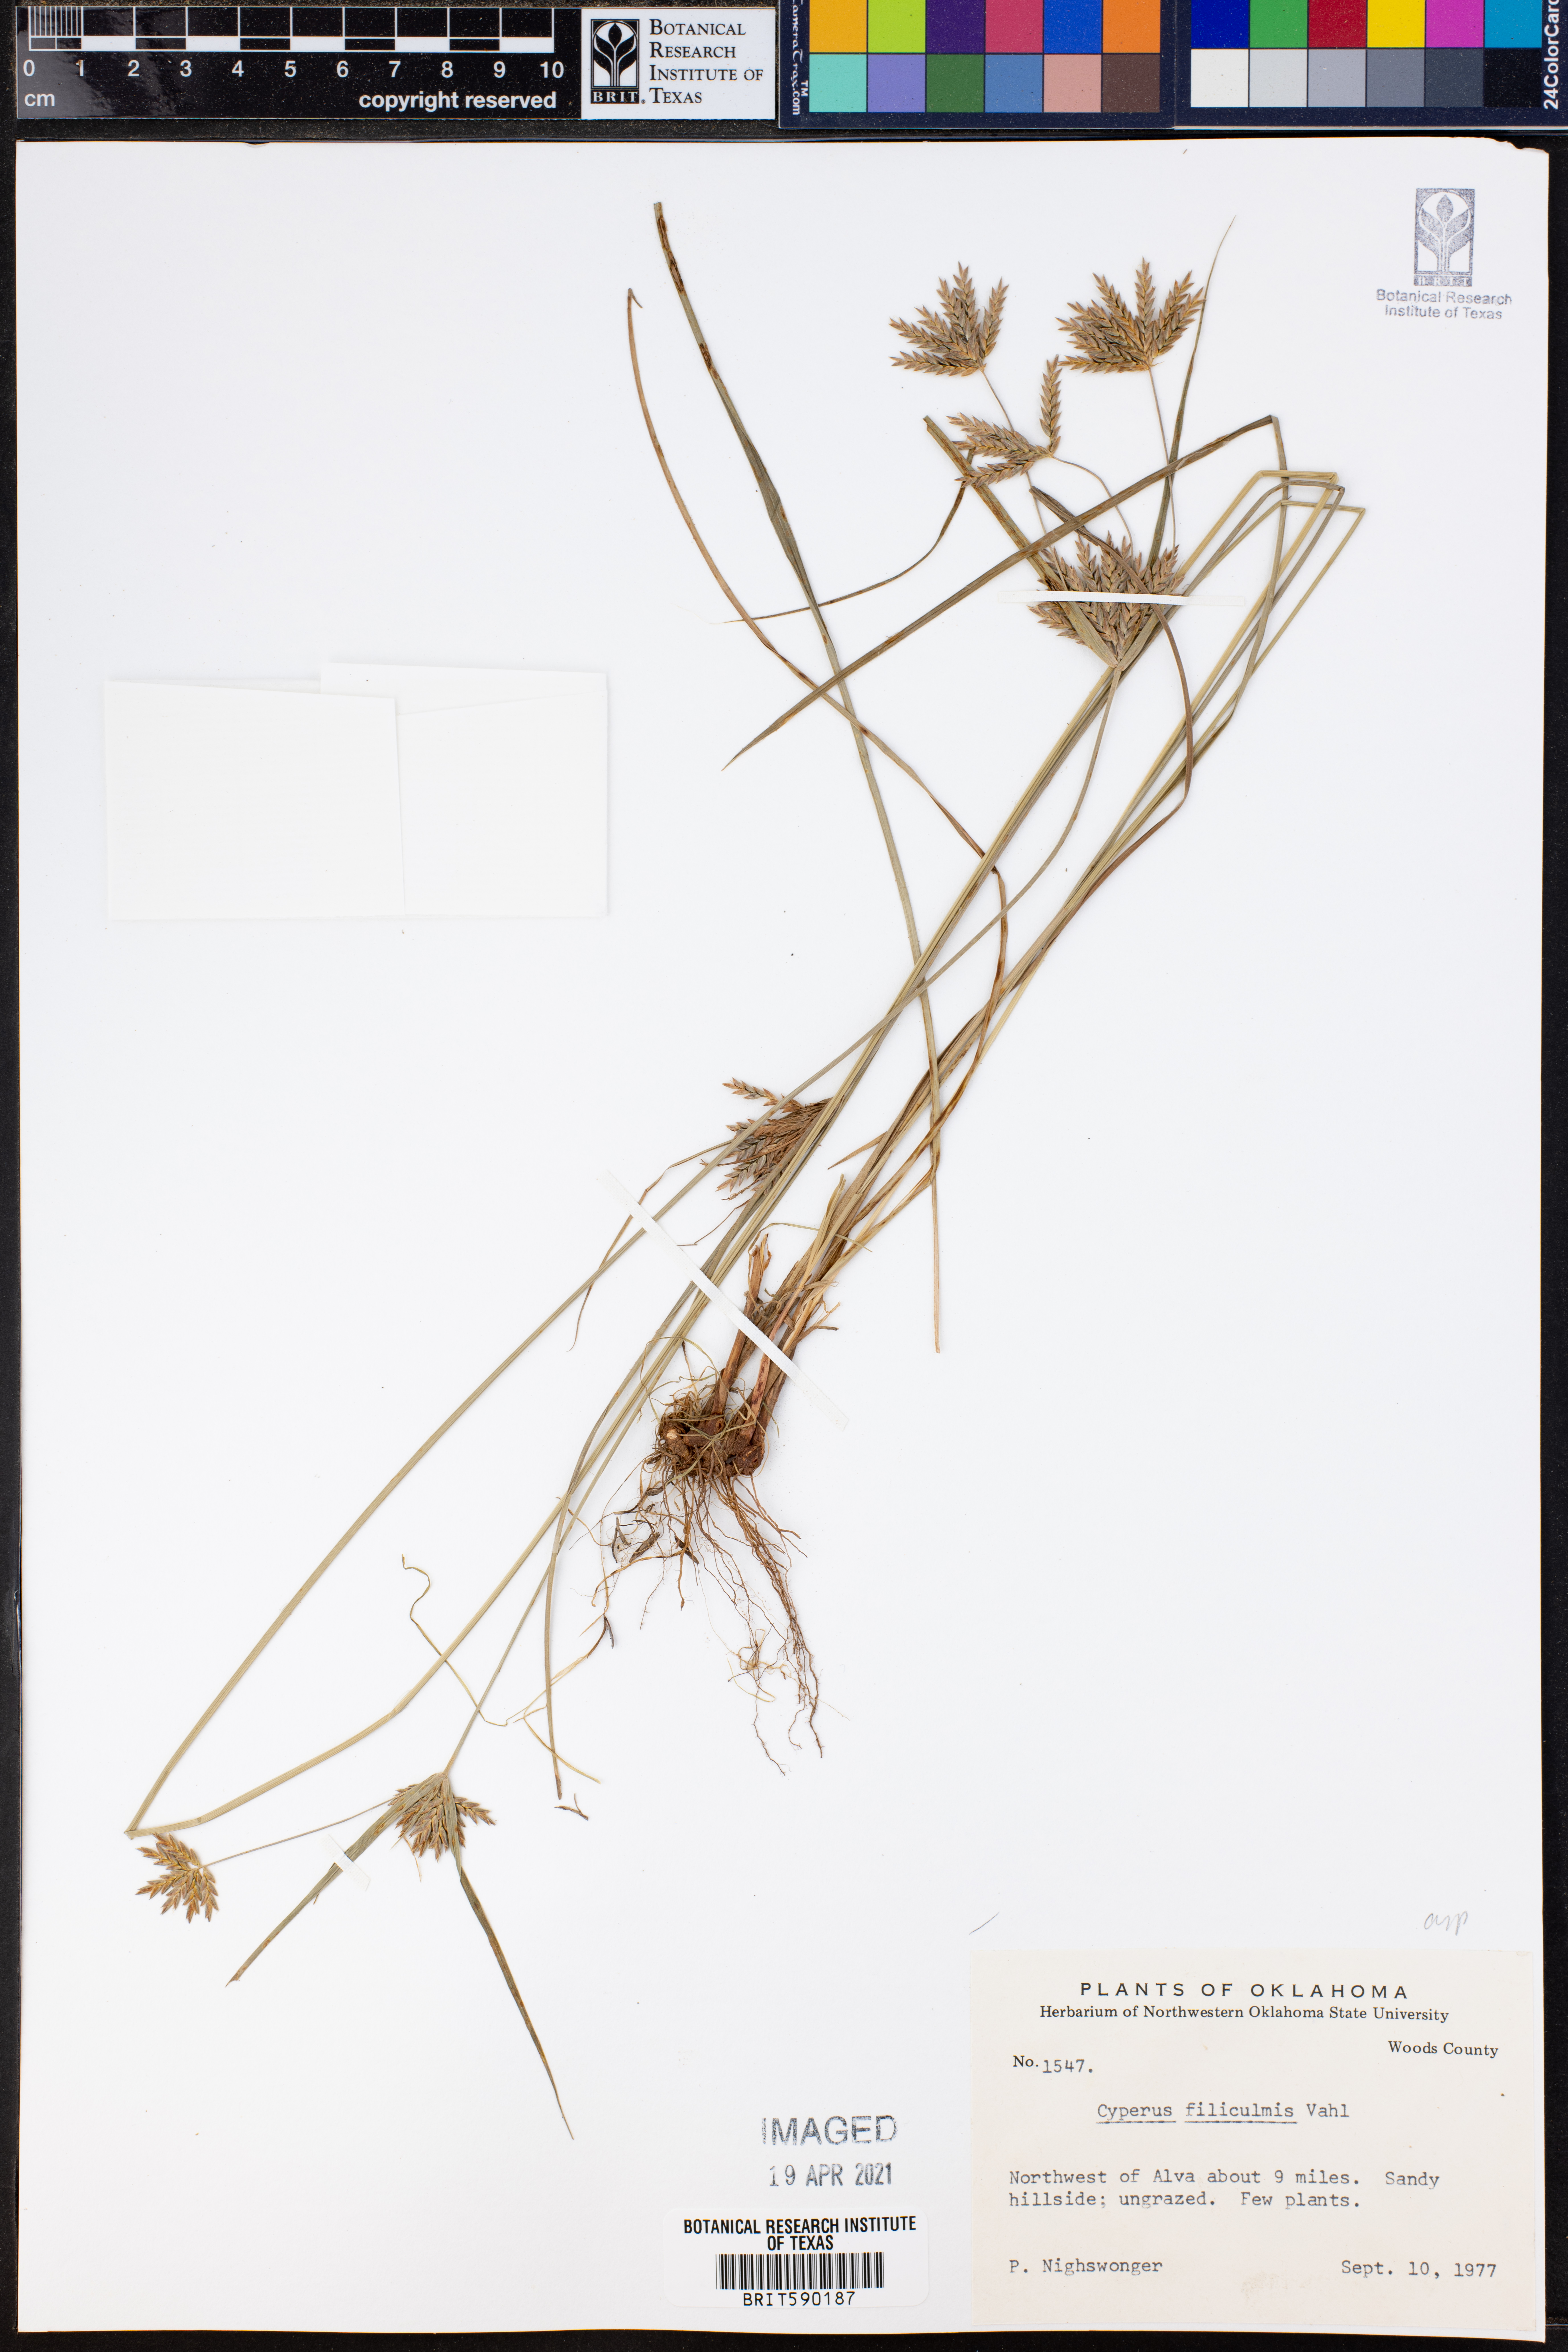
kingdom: Plantae
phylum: Tracheophyta
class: Liliopsida
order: Poales
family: Cyperaceae
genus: Cyperus
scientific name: Cyperus lanceolatus
